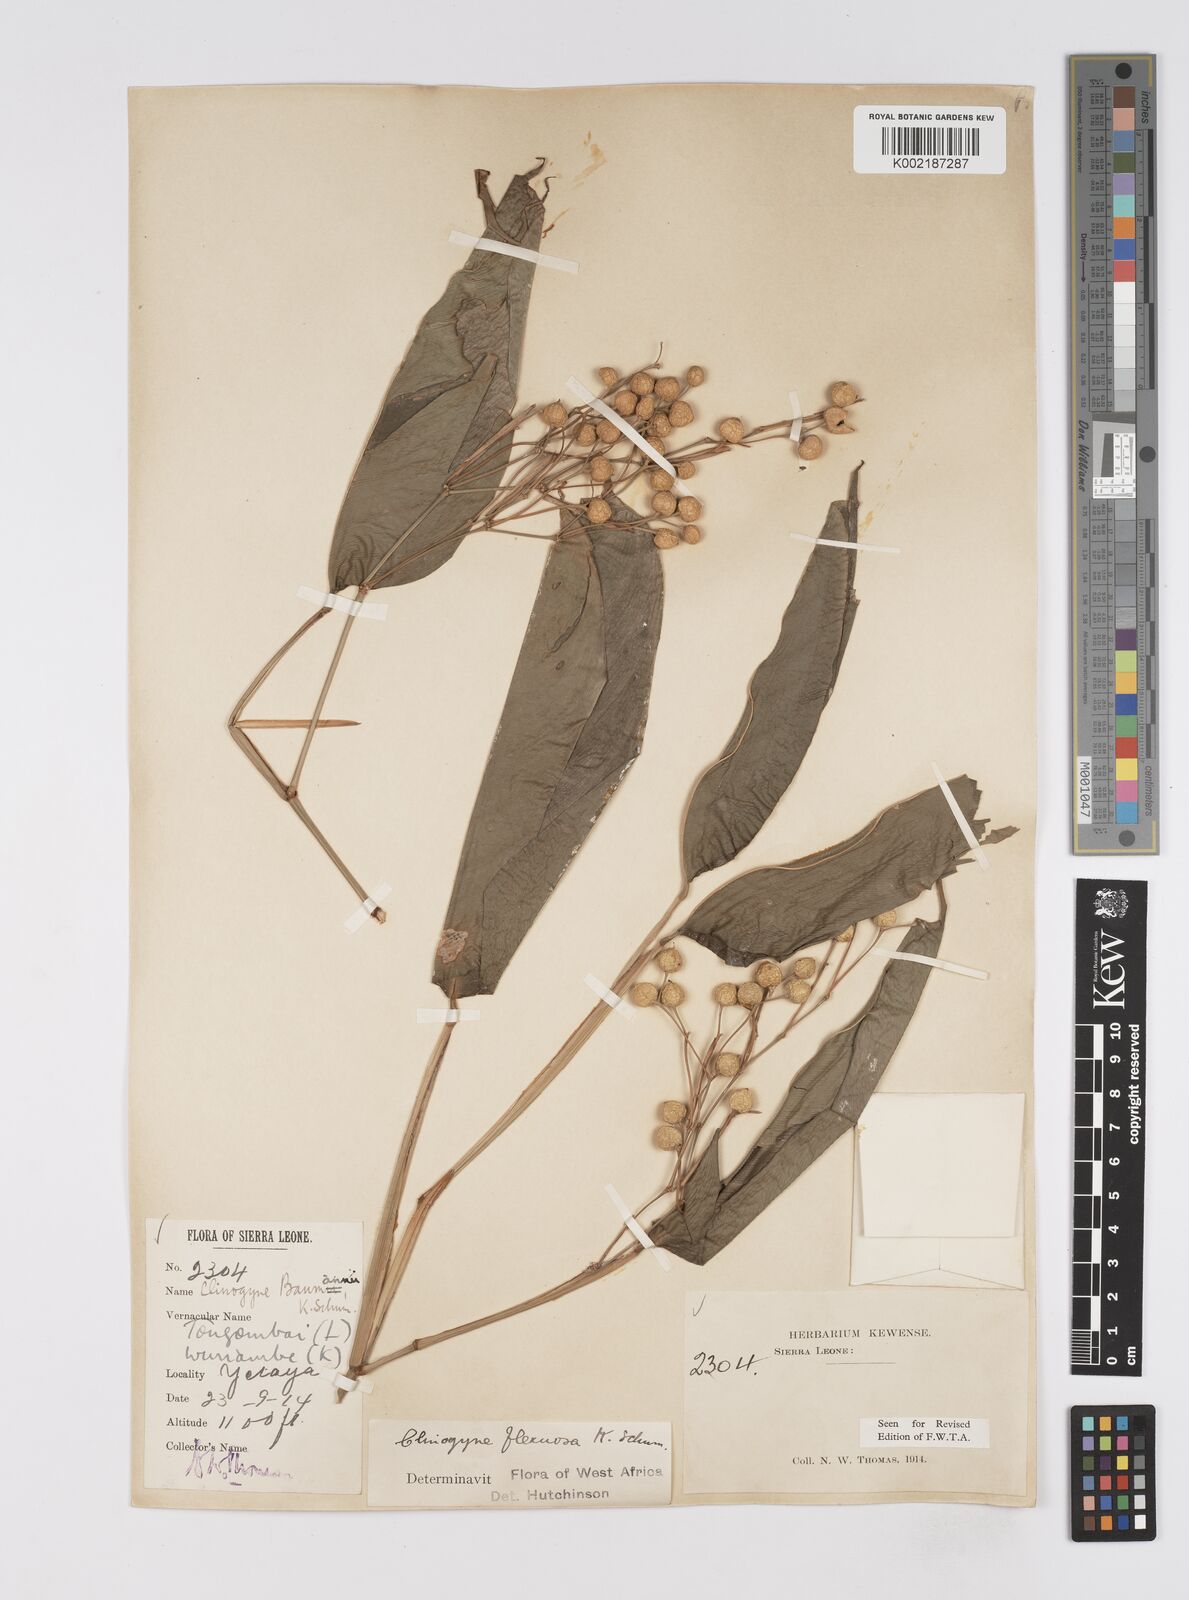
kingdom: Plantae
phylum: Tracheophyta
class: Liliopsida
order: Zingiberales
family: Marantaceae
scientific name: Marantaceae
